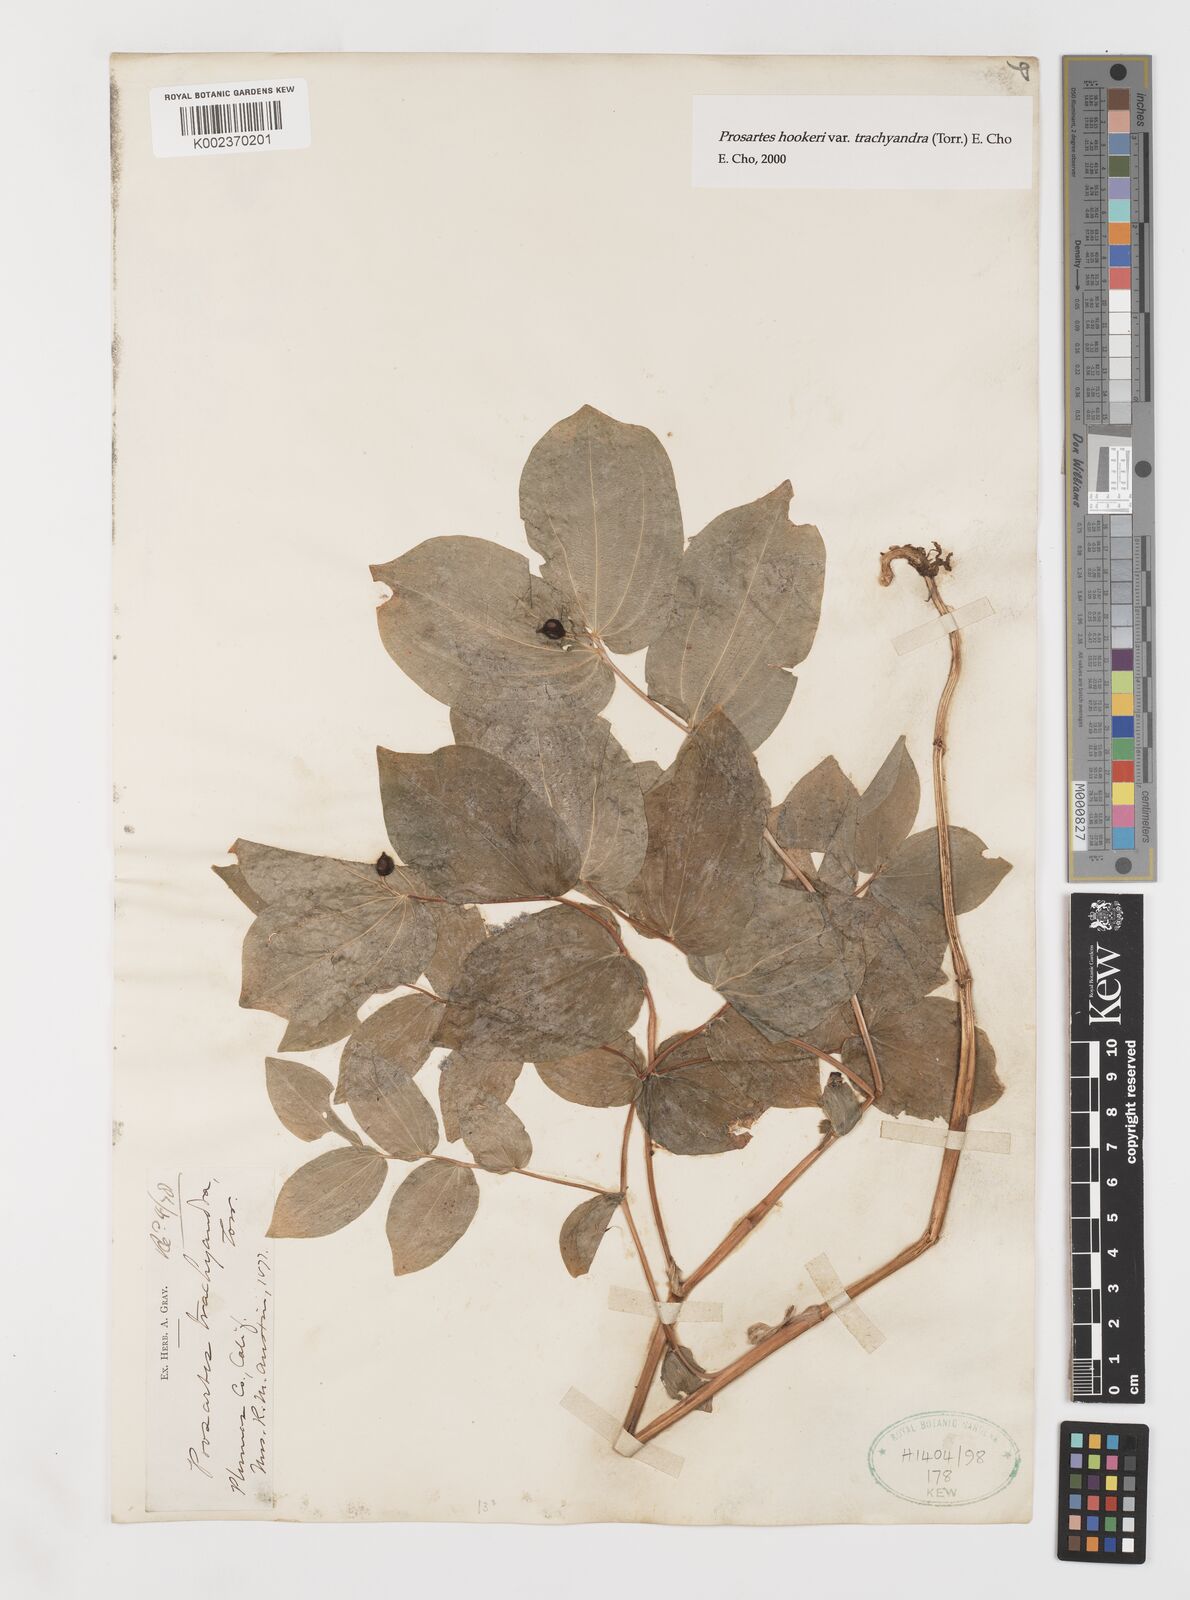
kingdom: Plantae
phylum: Tracheophyta
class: Liliopsida
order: Liliales
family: Liliaceae
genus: Prosartes
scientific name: Prosartes lanuginosa
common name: Hairy mandarin
